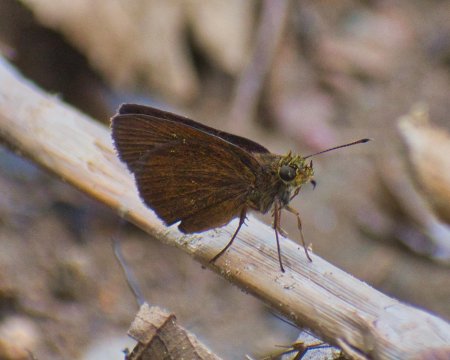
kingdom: Animalia
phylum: Arthropoda
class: Insecta
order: Lepidoptera
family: Hesperiidae
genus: Eprius
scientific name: Eprius veleda
